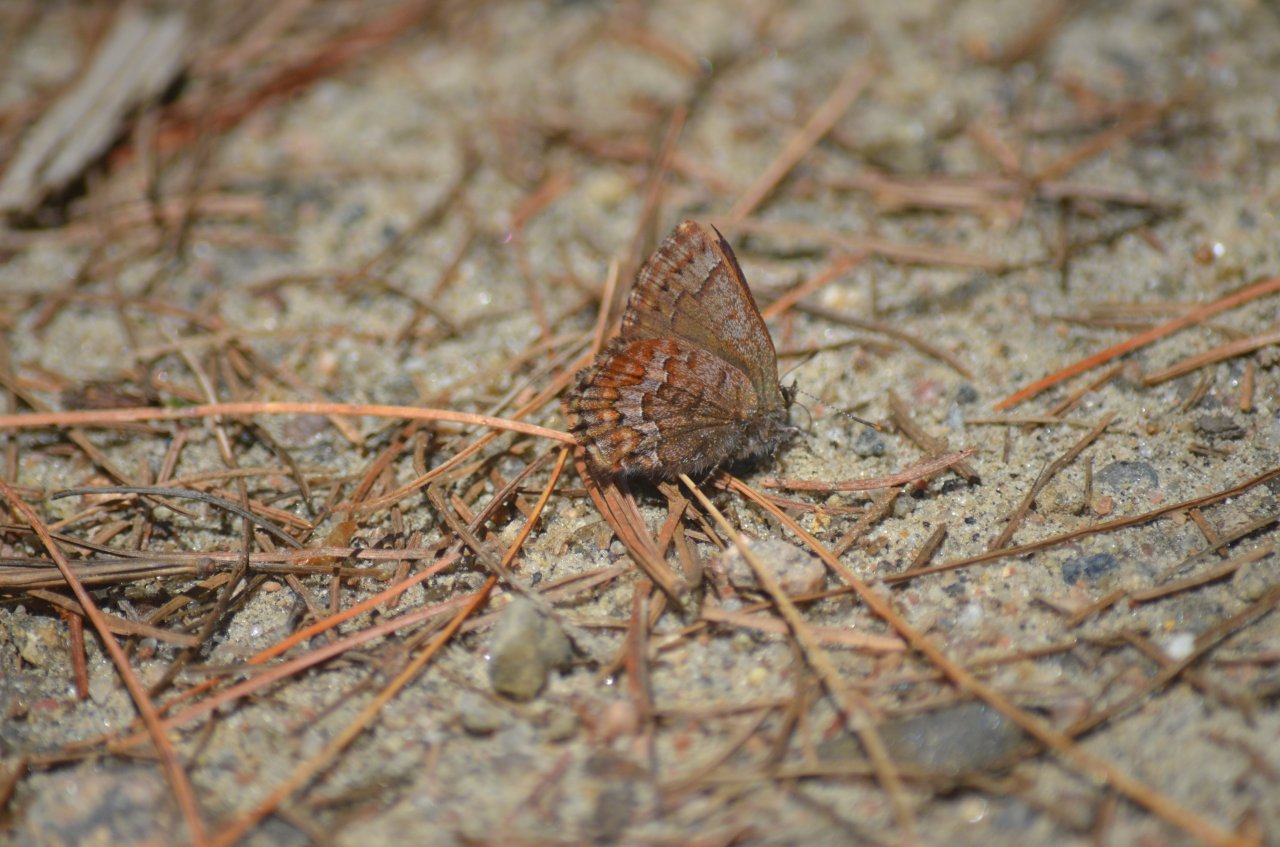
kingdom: Animalia
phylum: Arthropoda
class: Insecta
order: Lepidoptera
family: Lycaenidae
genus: Incisalia
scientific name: Incisalia niphon
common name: Eastern Pine Elfin
